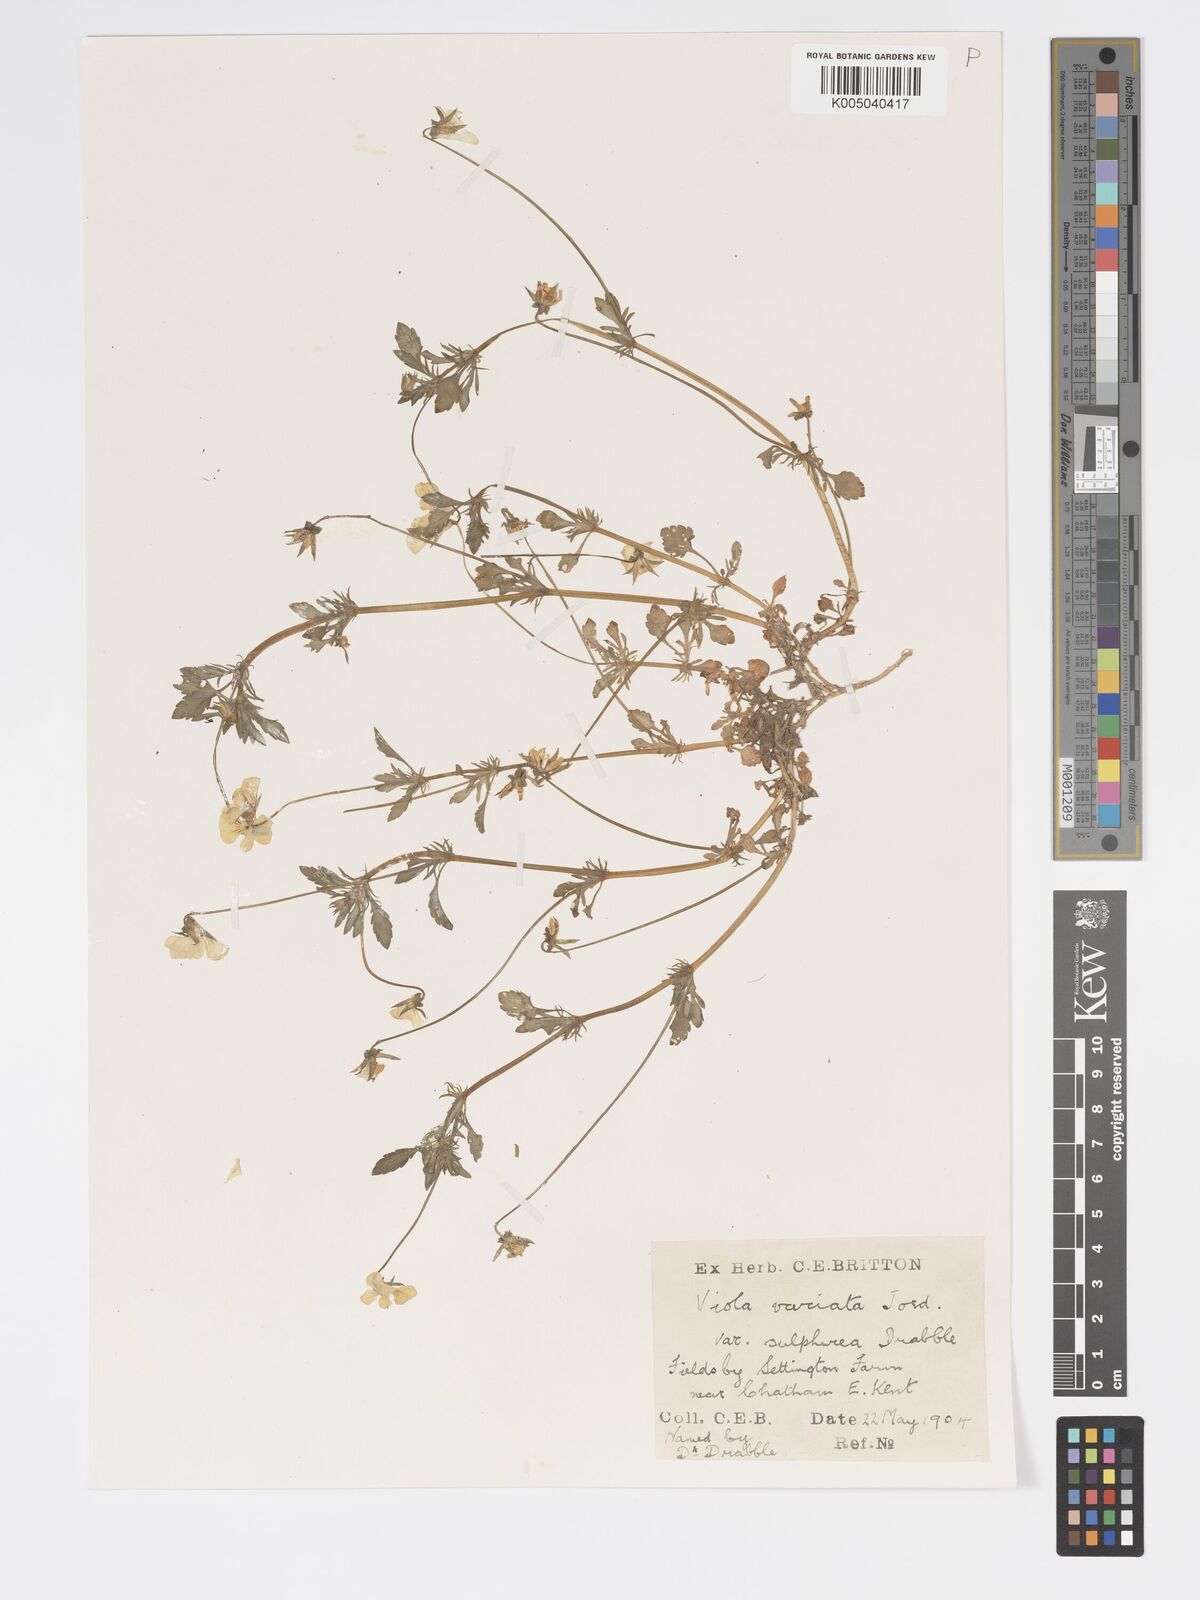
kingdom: Plantae
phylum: Tracheophyta
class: Magnoliopsida
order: Malpighiales
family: Violaceae
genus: Viola
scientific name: Viola arvensis
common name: Field pansy
